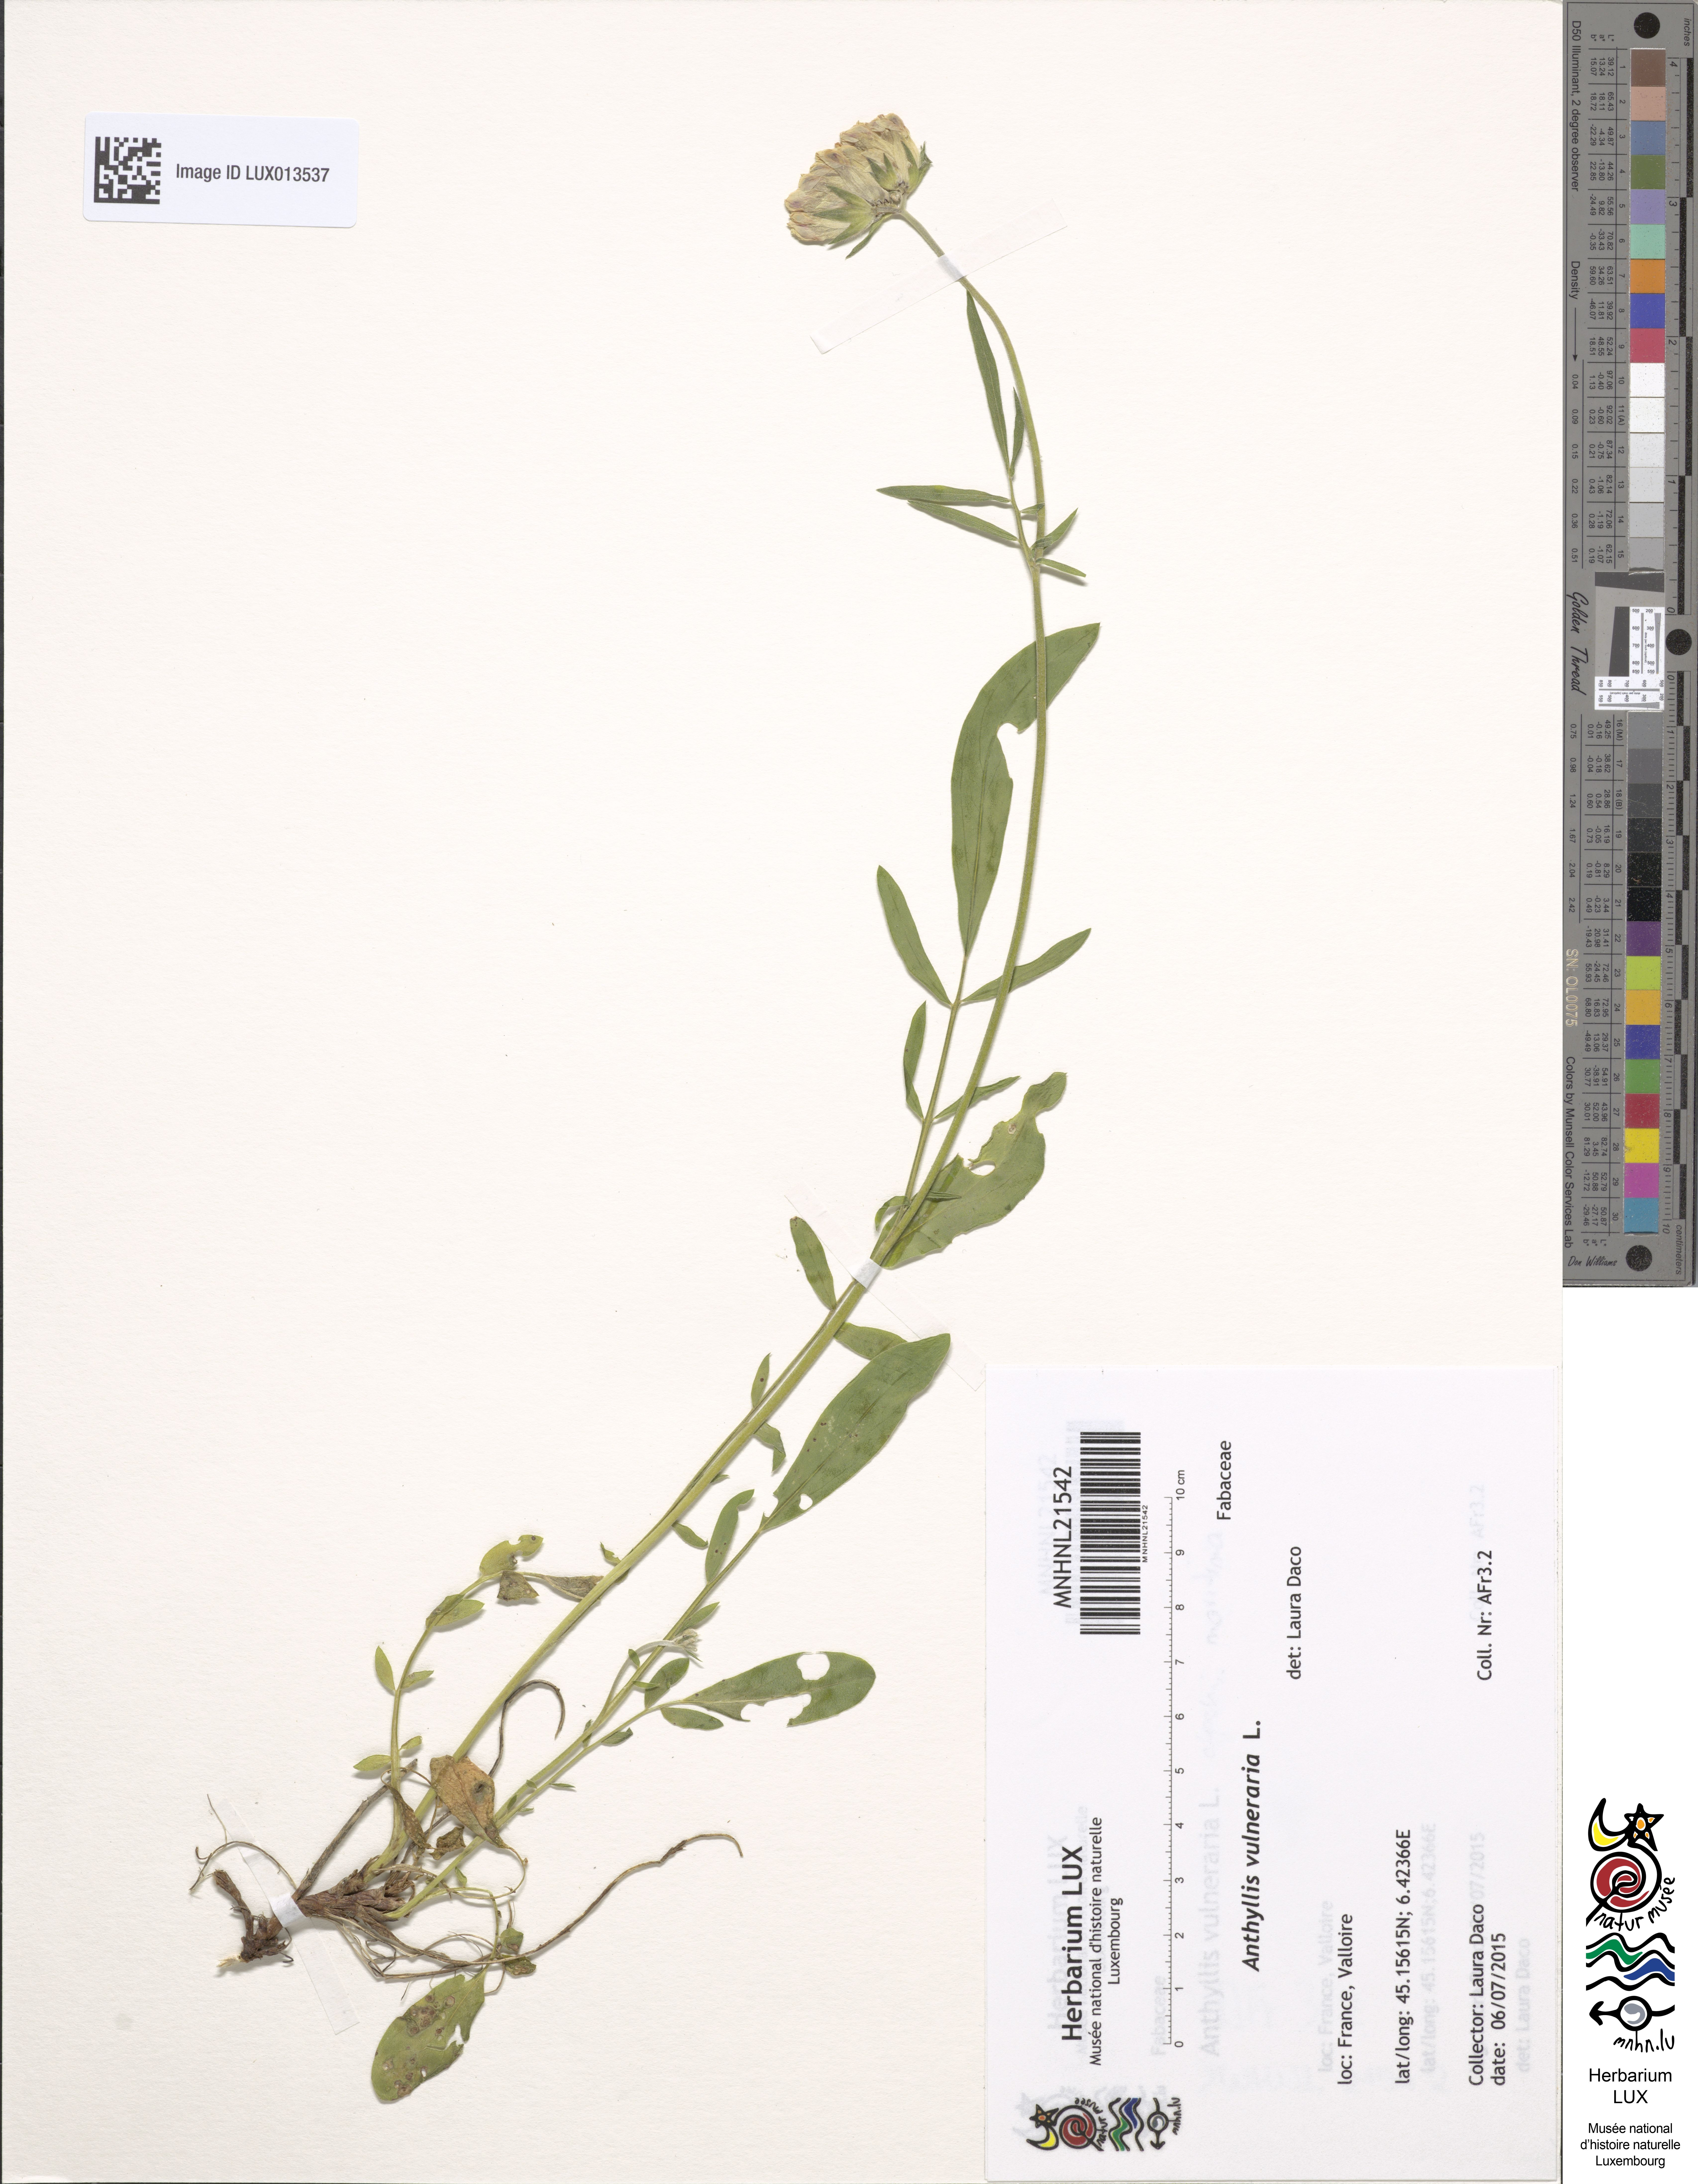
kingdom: Plantae
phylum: Tracheophyta
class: Magnoliopsida
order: Fabales
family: Fabaceae
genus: Anthyllis
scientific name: Anthyllis vulneraria
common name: Kidney vetch
